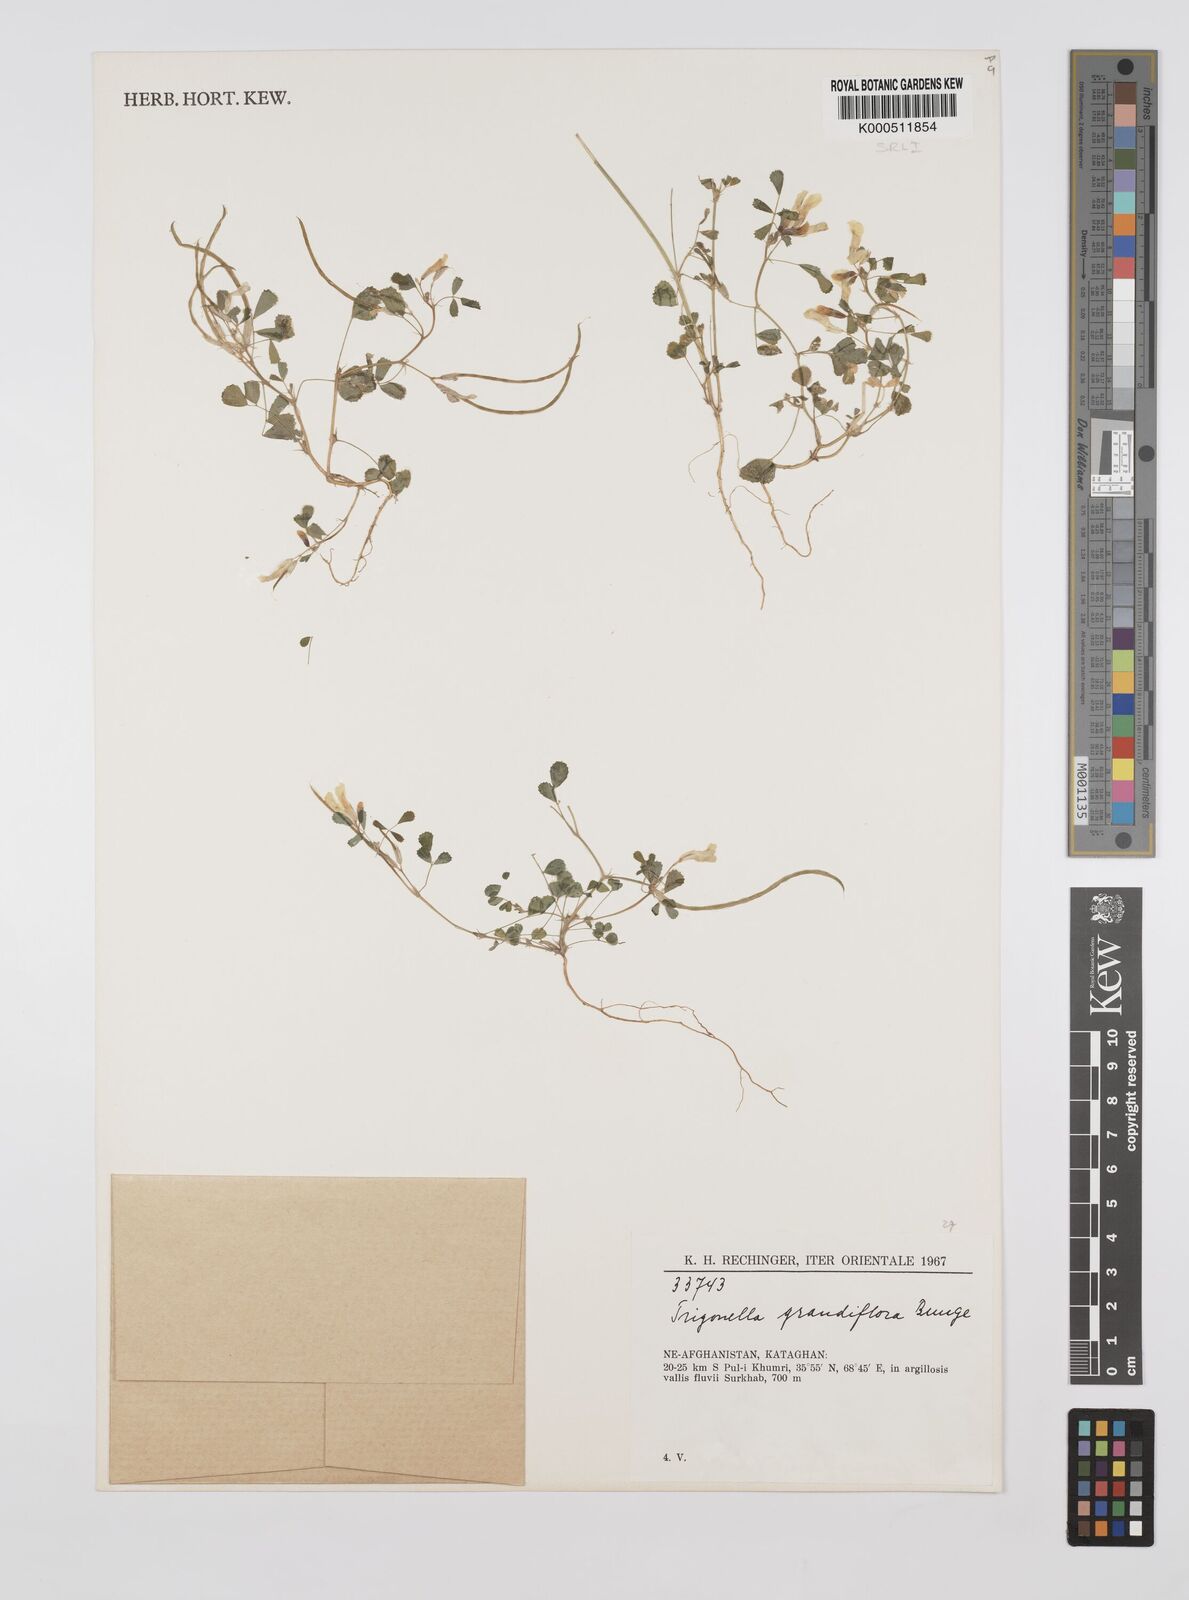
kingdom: Plantae
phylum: Tracheophyta
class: Magnoliopsida
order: Fabales
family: Fabaceae
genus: Trigonella
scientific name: Trigonella grandiflora
